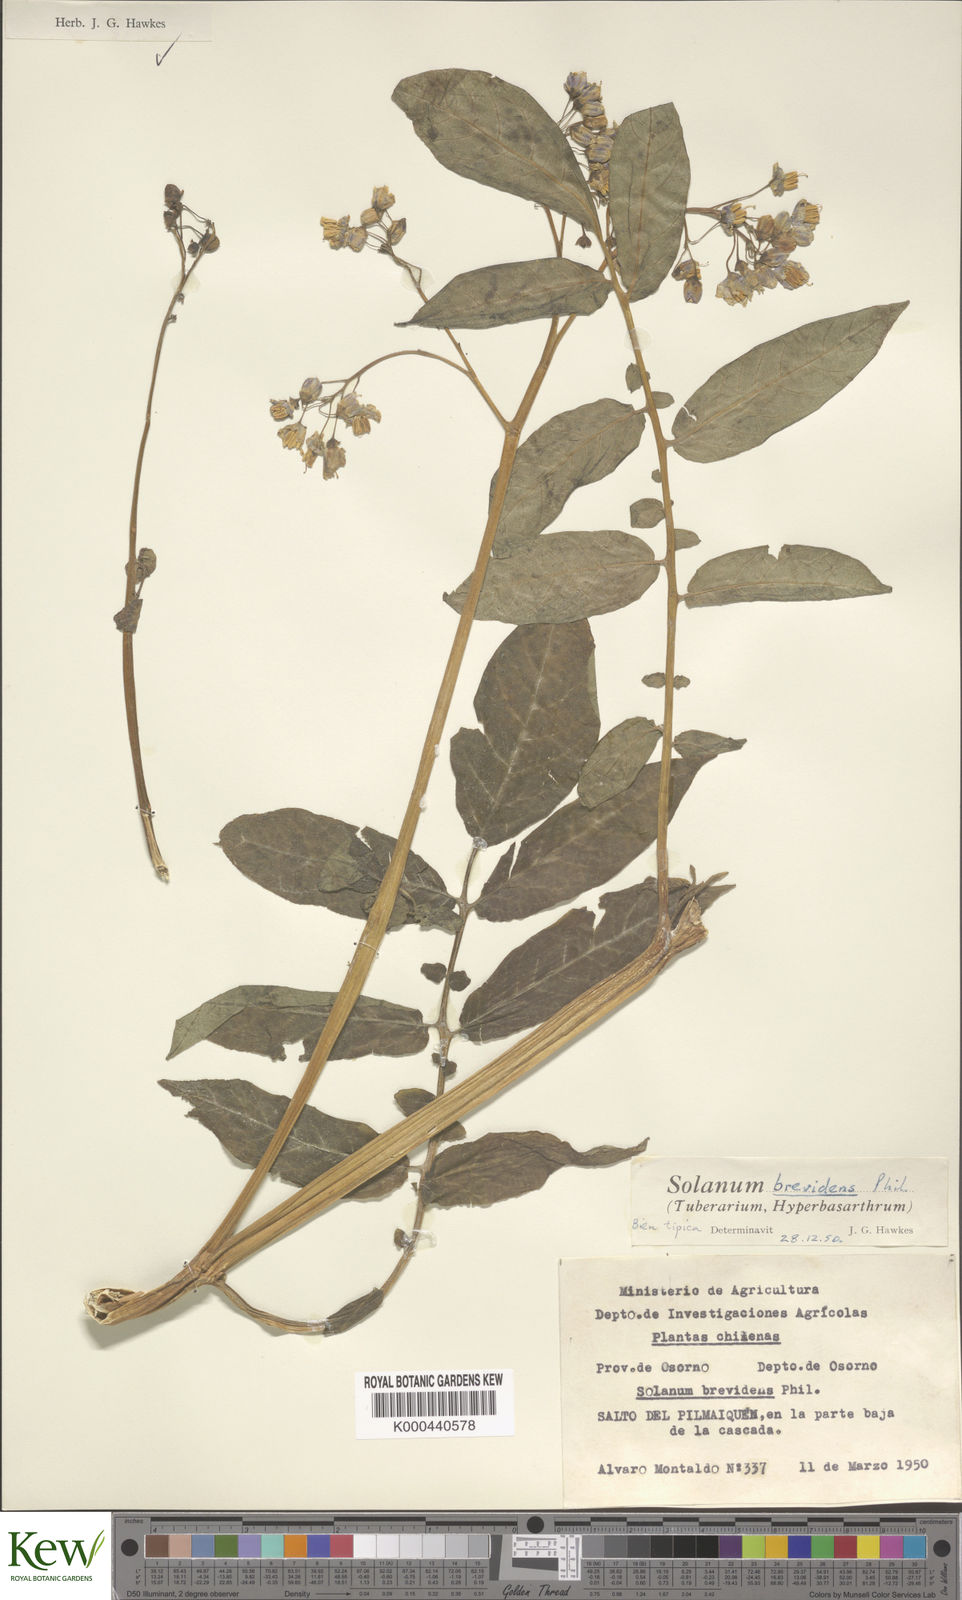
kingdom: Plantae
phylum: Tracheophyta
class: Magnoliopsida
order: Solanales
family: Solanaceae
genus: Solanum
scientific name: Solanum palustre
